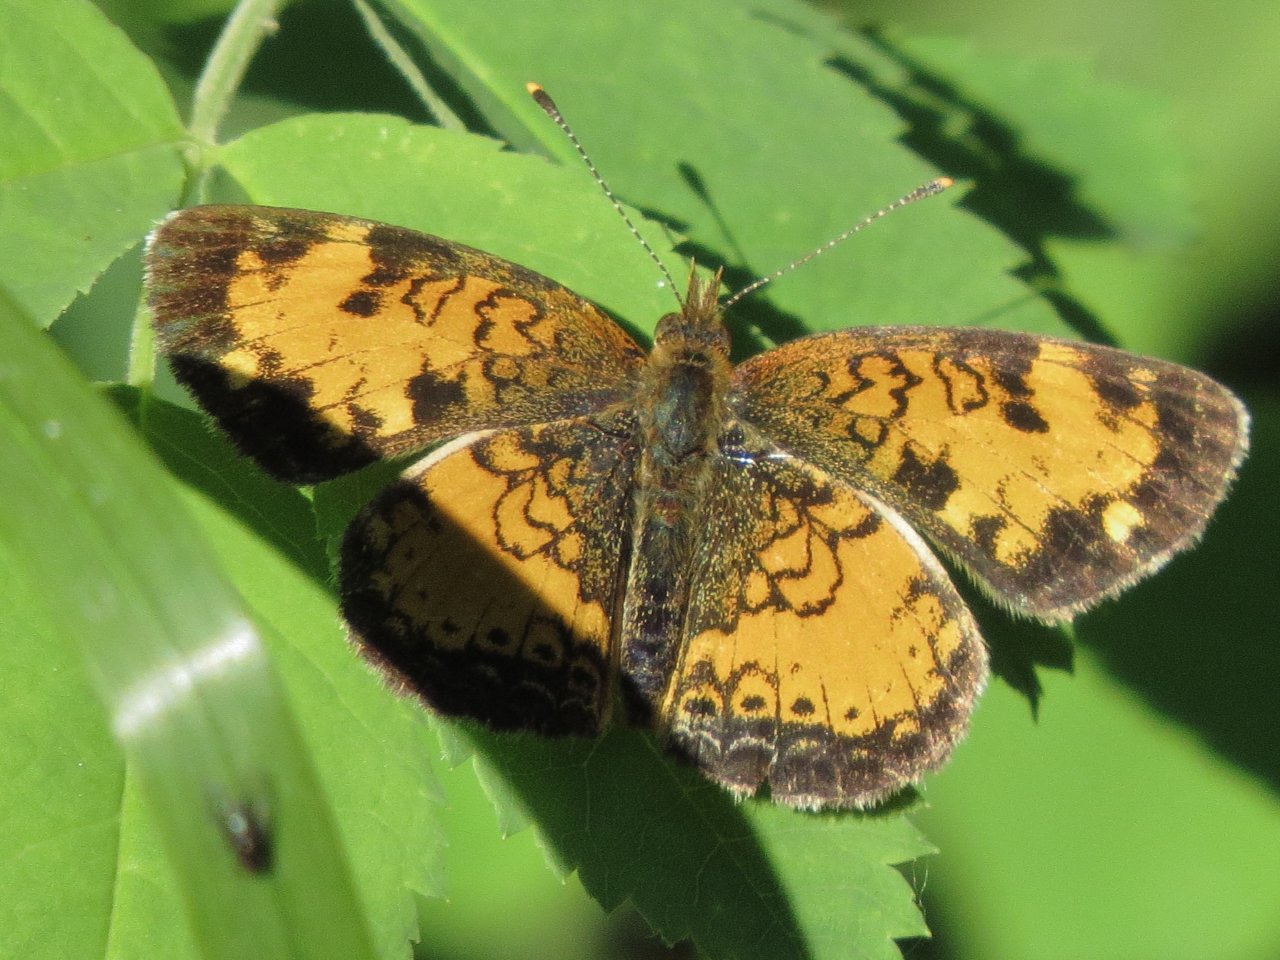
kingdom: Animalia
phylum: Arthropoda
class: Insecta
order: Lepidoptera
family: Nymphalidae
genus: Phyciodes
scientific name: Phyciodes tharos
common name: Northern Crescent
